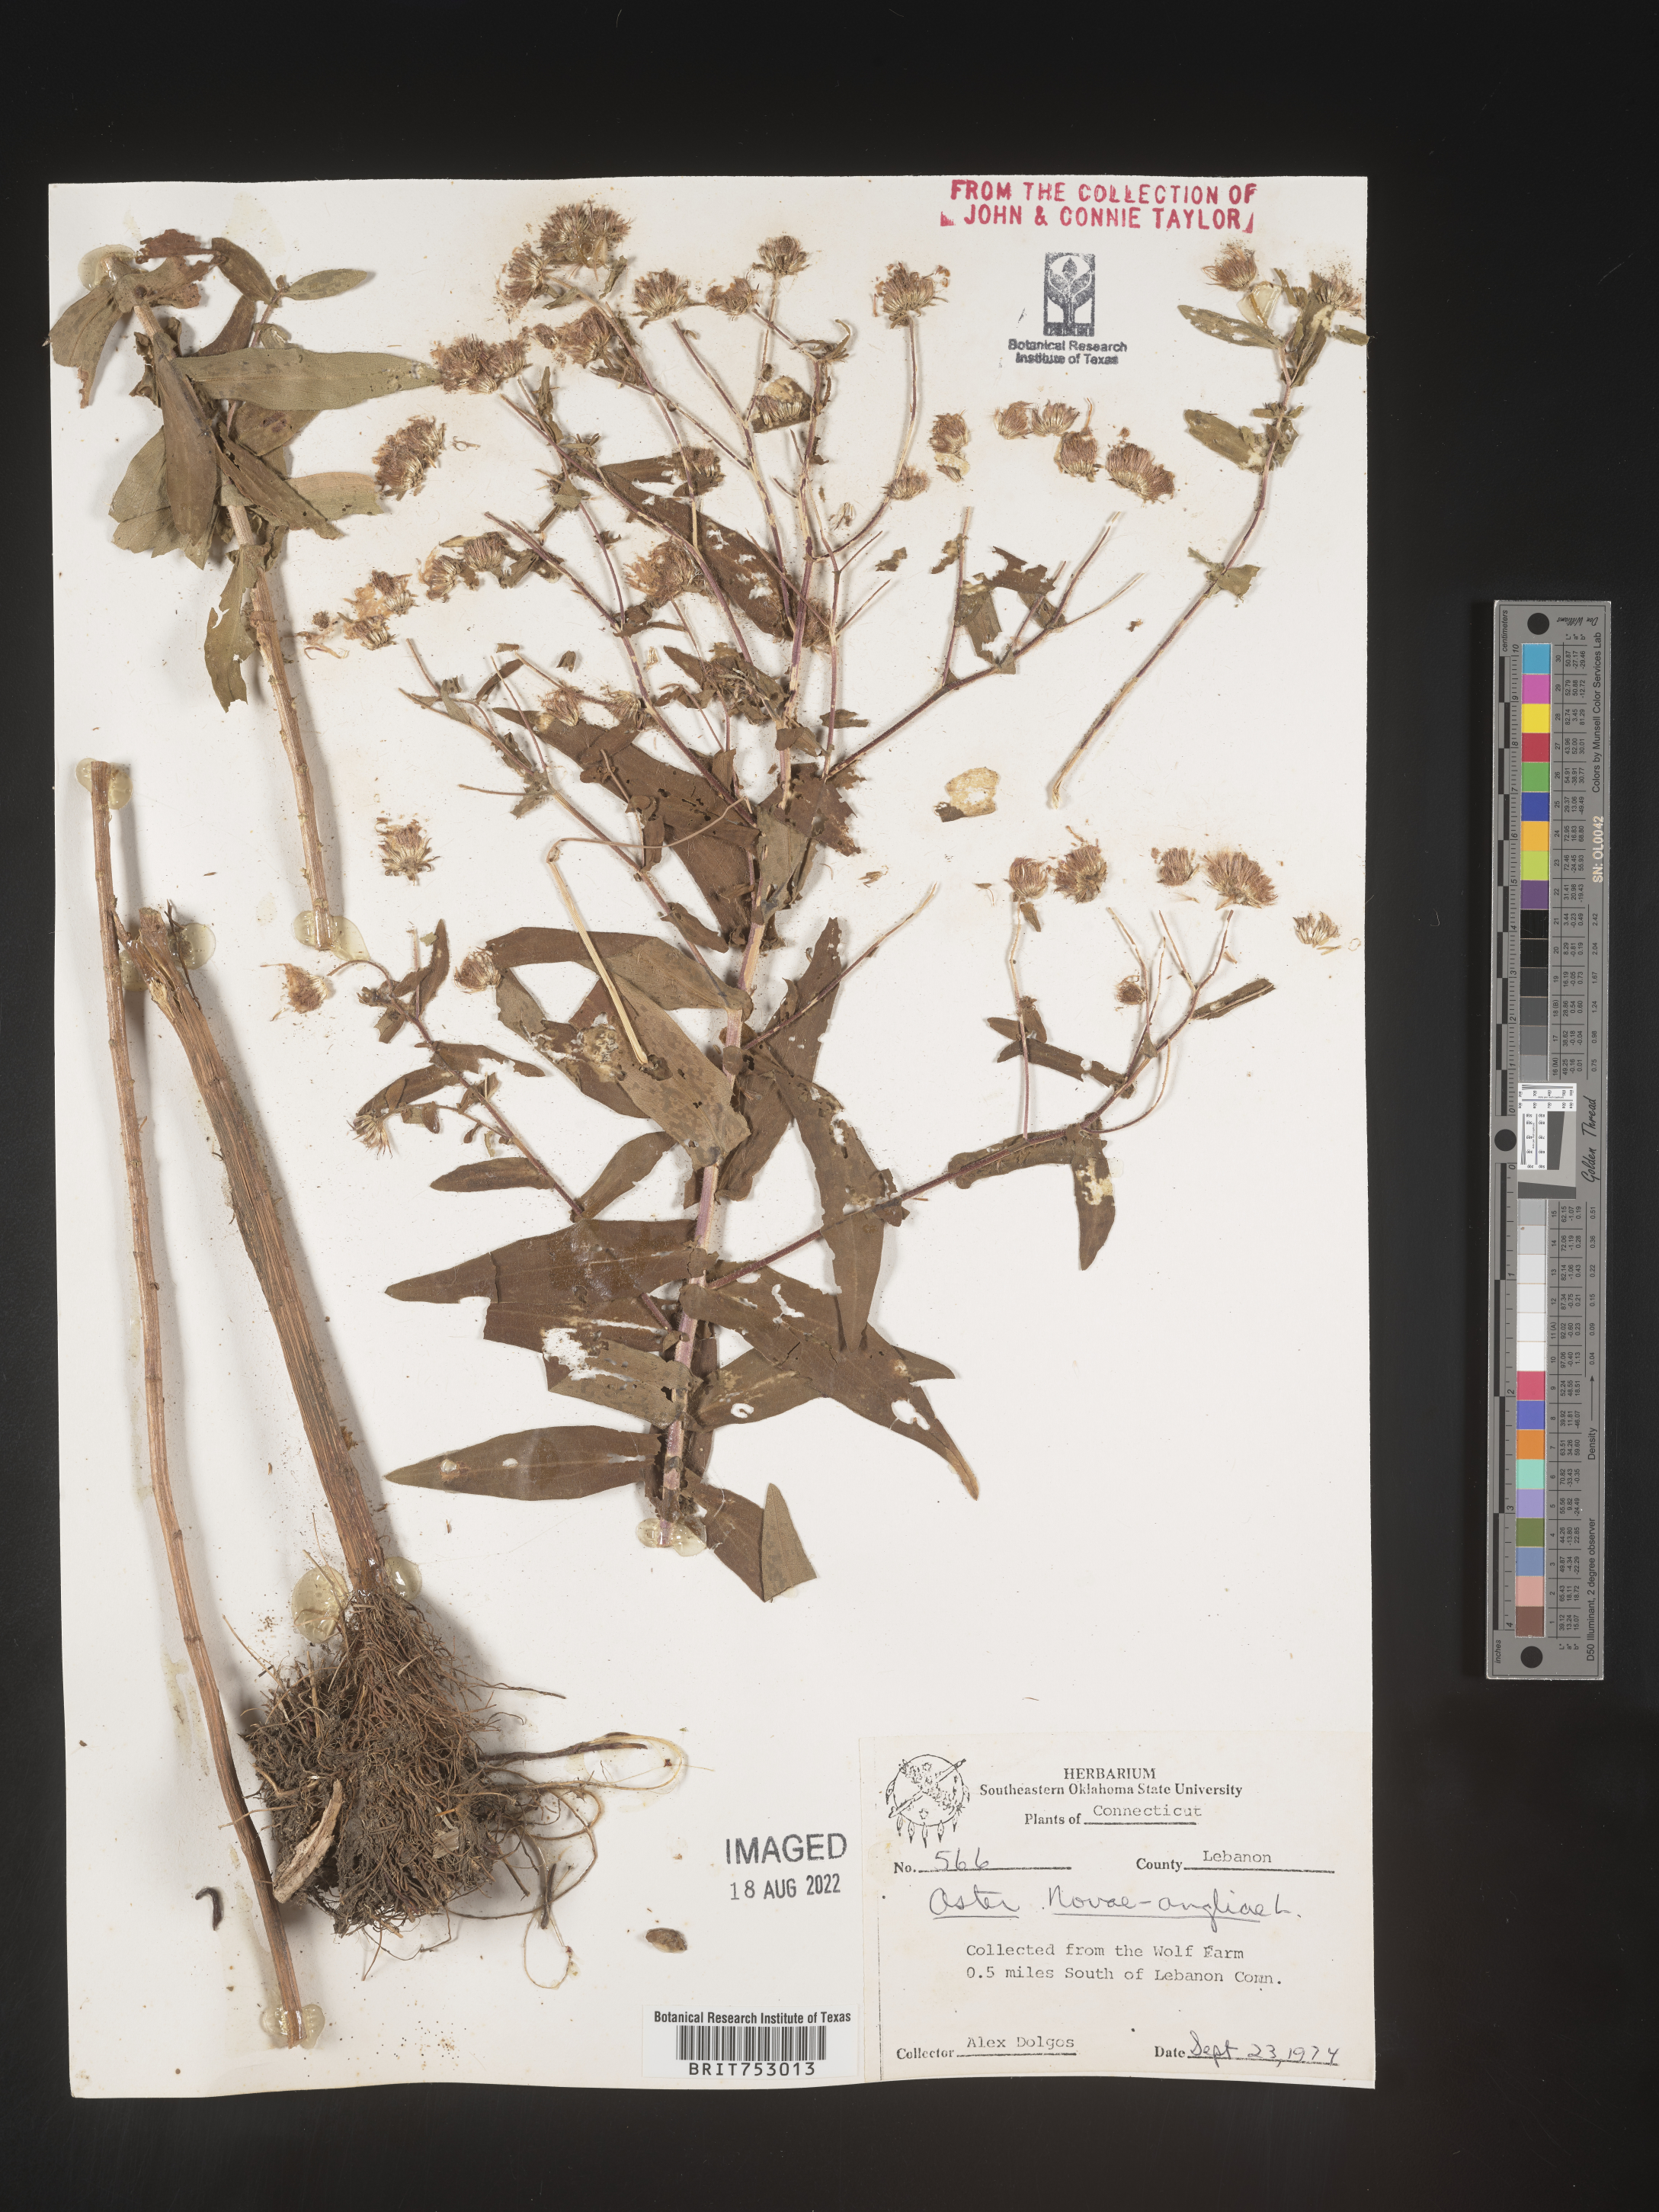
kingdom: Plantae
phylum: Tracheophyta
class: Magnoliopsida
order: Asterales
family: Asteraceae
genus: Symphyotrichum
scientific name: Symphyotrichum novae-angliae
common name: Michaelmas daisy
